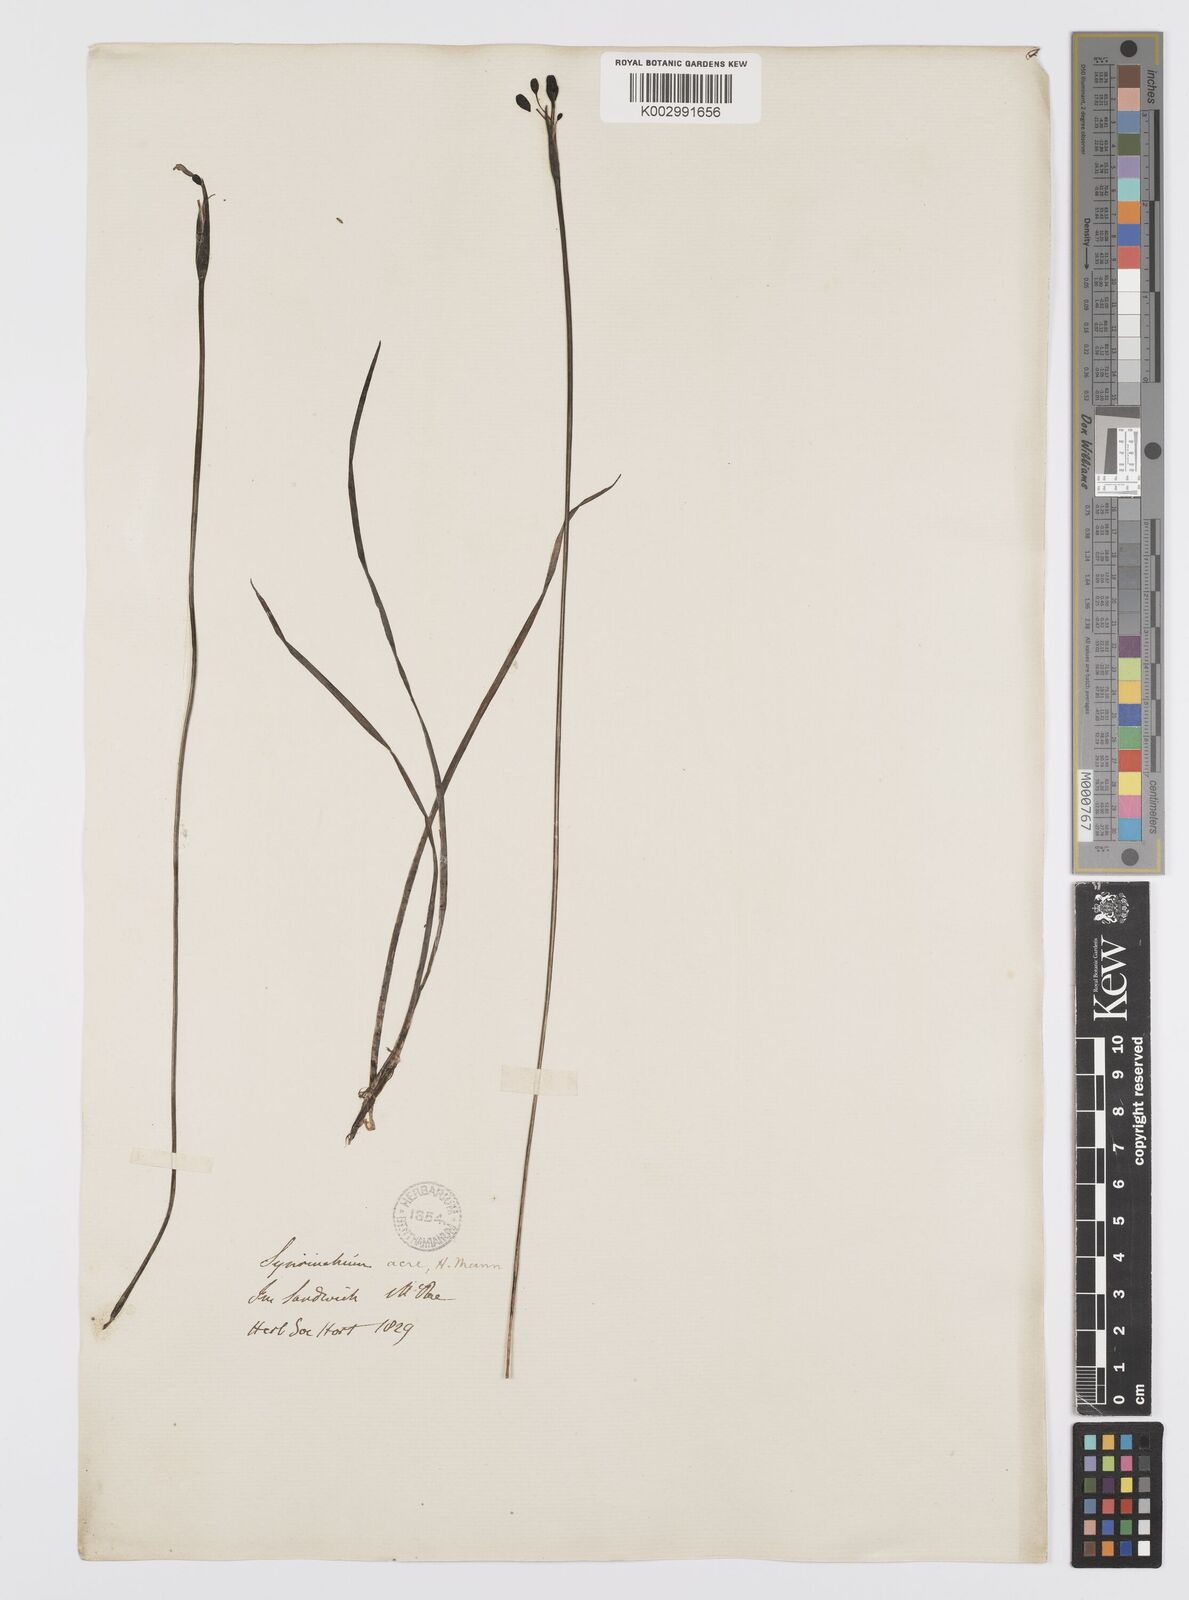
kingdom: Plantae
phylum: Tracheophyta
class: Liliopsida
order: Asparagales
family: Iridaceae
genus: Sisyrinchium
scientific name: Sisyrinchium acre
